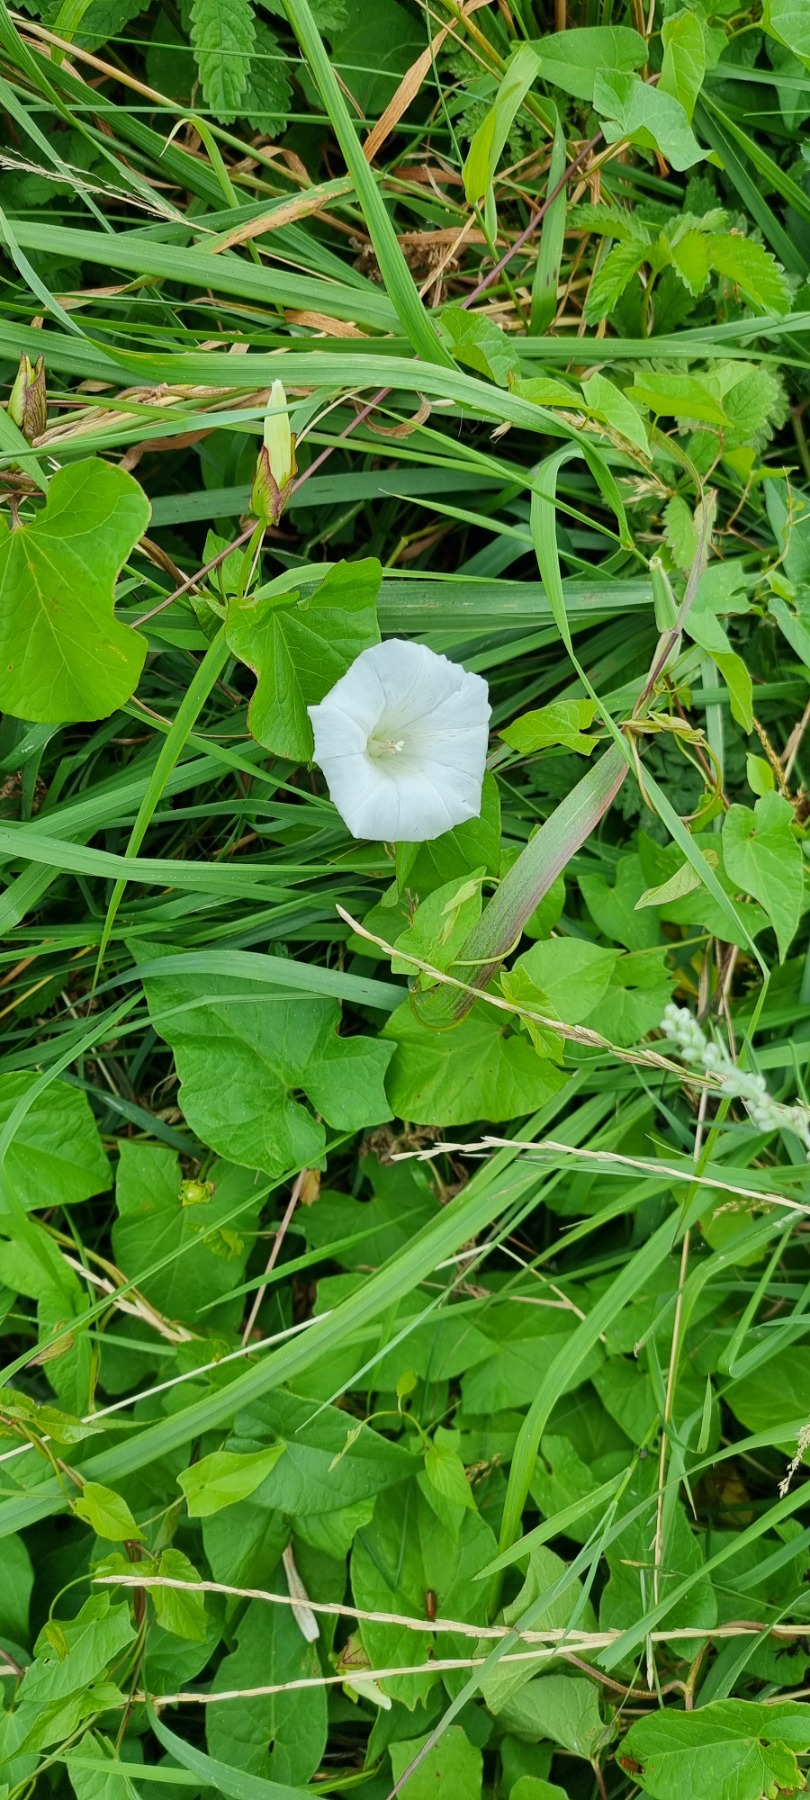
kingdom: Plantae
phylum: Tracheophyta
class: Magnoliopsida
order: Solanales
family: Convolvulaceae
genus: Calystegia
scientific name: Calystegia sepium
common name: Gærde-snerle
